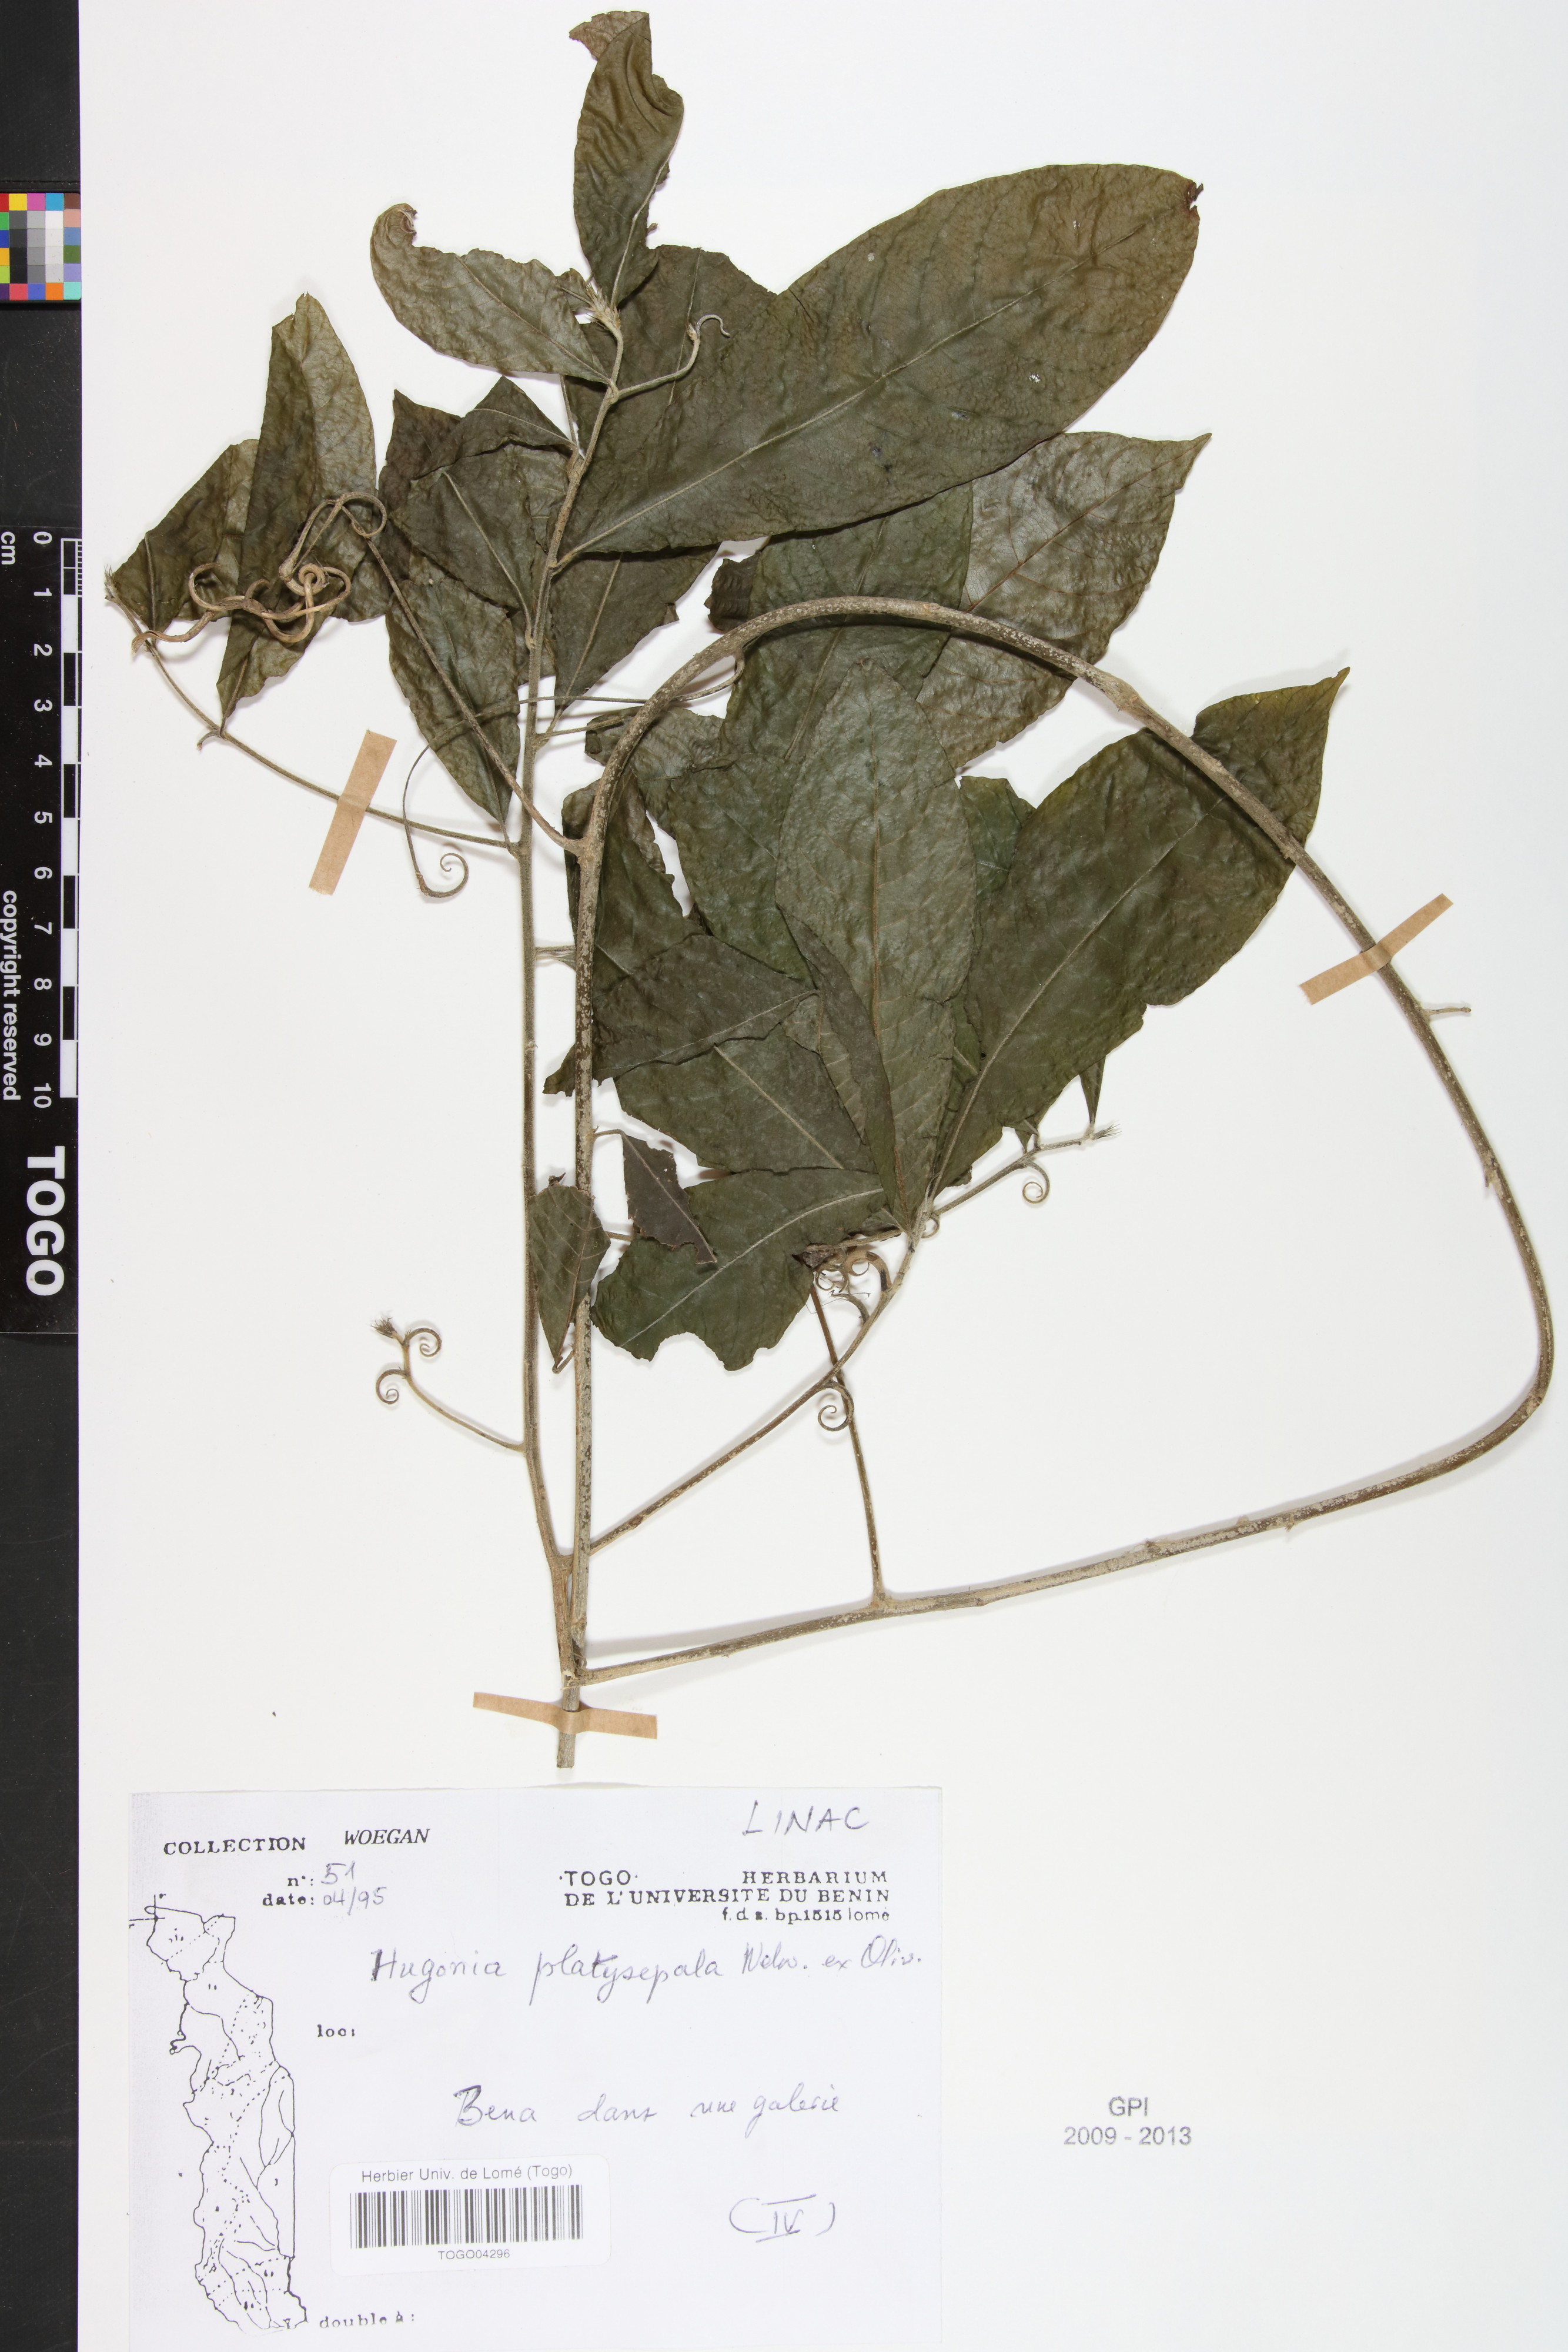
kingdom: Plantae
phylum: Tracheophyta
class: Magnoliopsida
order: Malpighiales
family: Linaceae
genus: Hugonia
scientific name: Hugonia platysepala
